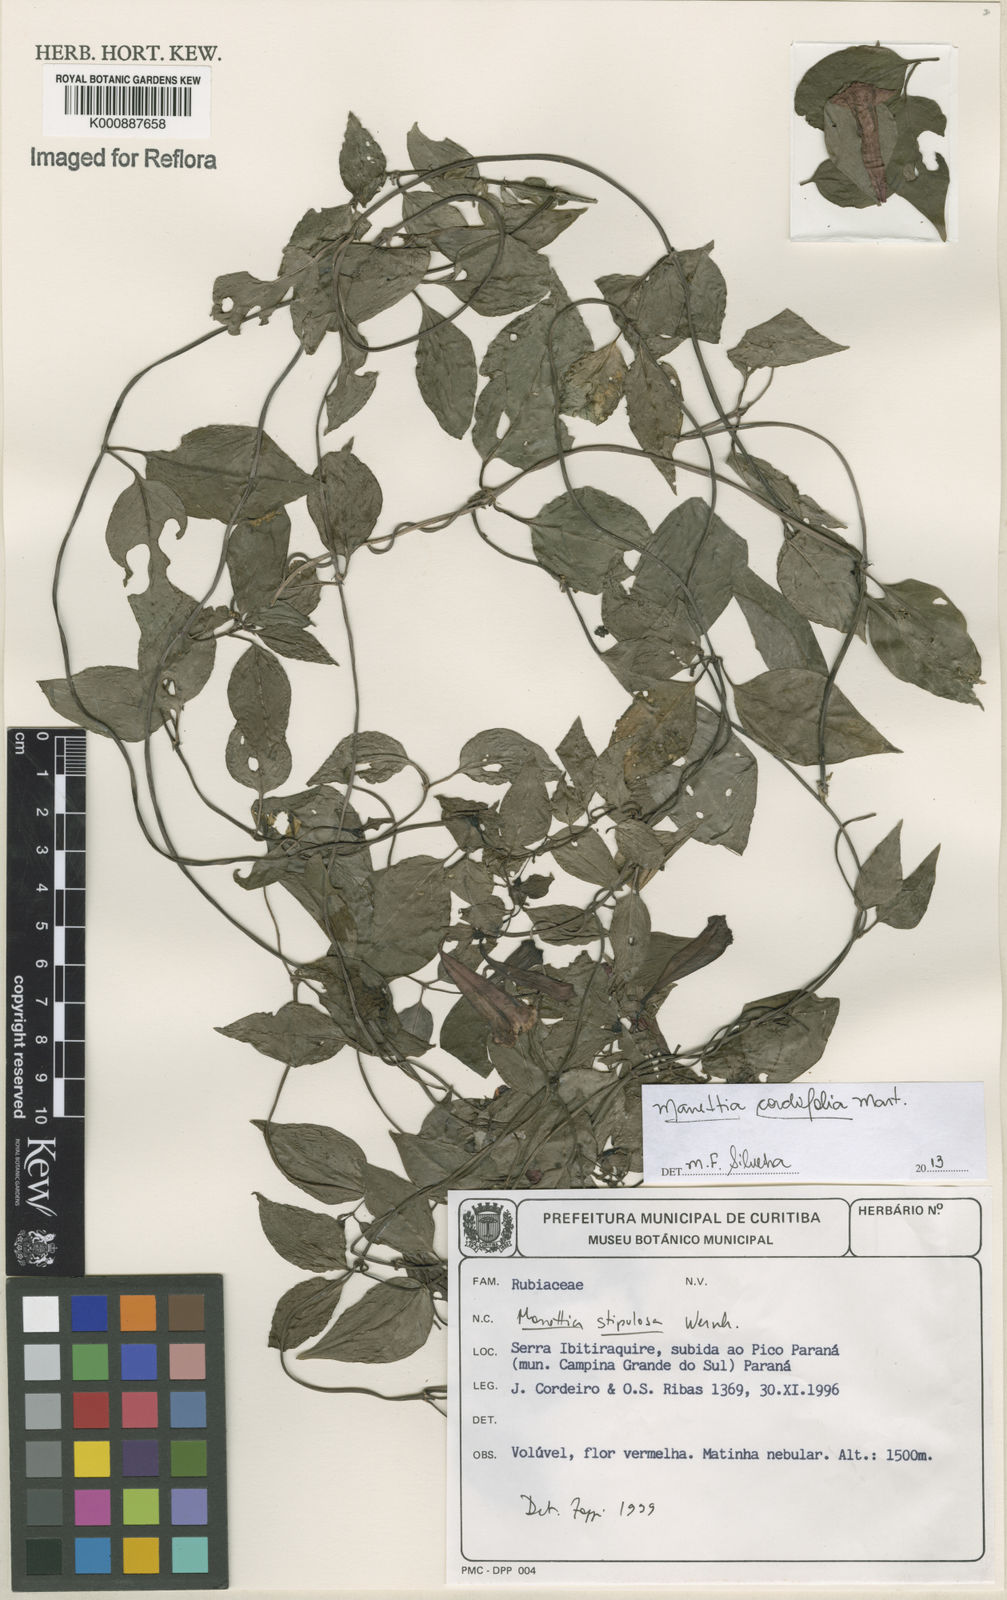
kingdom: Plantae
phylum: Tracheophyta
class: Magnoliopsida
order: Gentianales
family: Rubiaceae
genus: Manettia
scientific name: Manettia cordifolia
